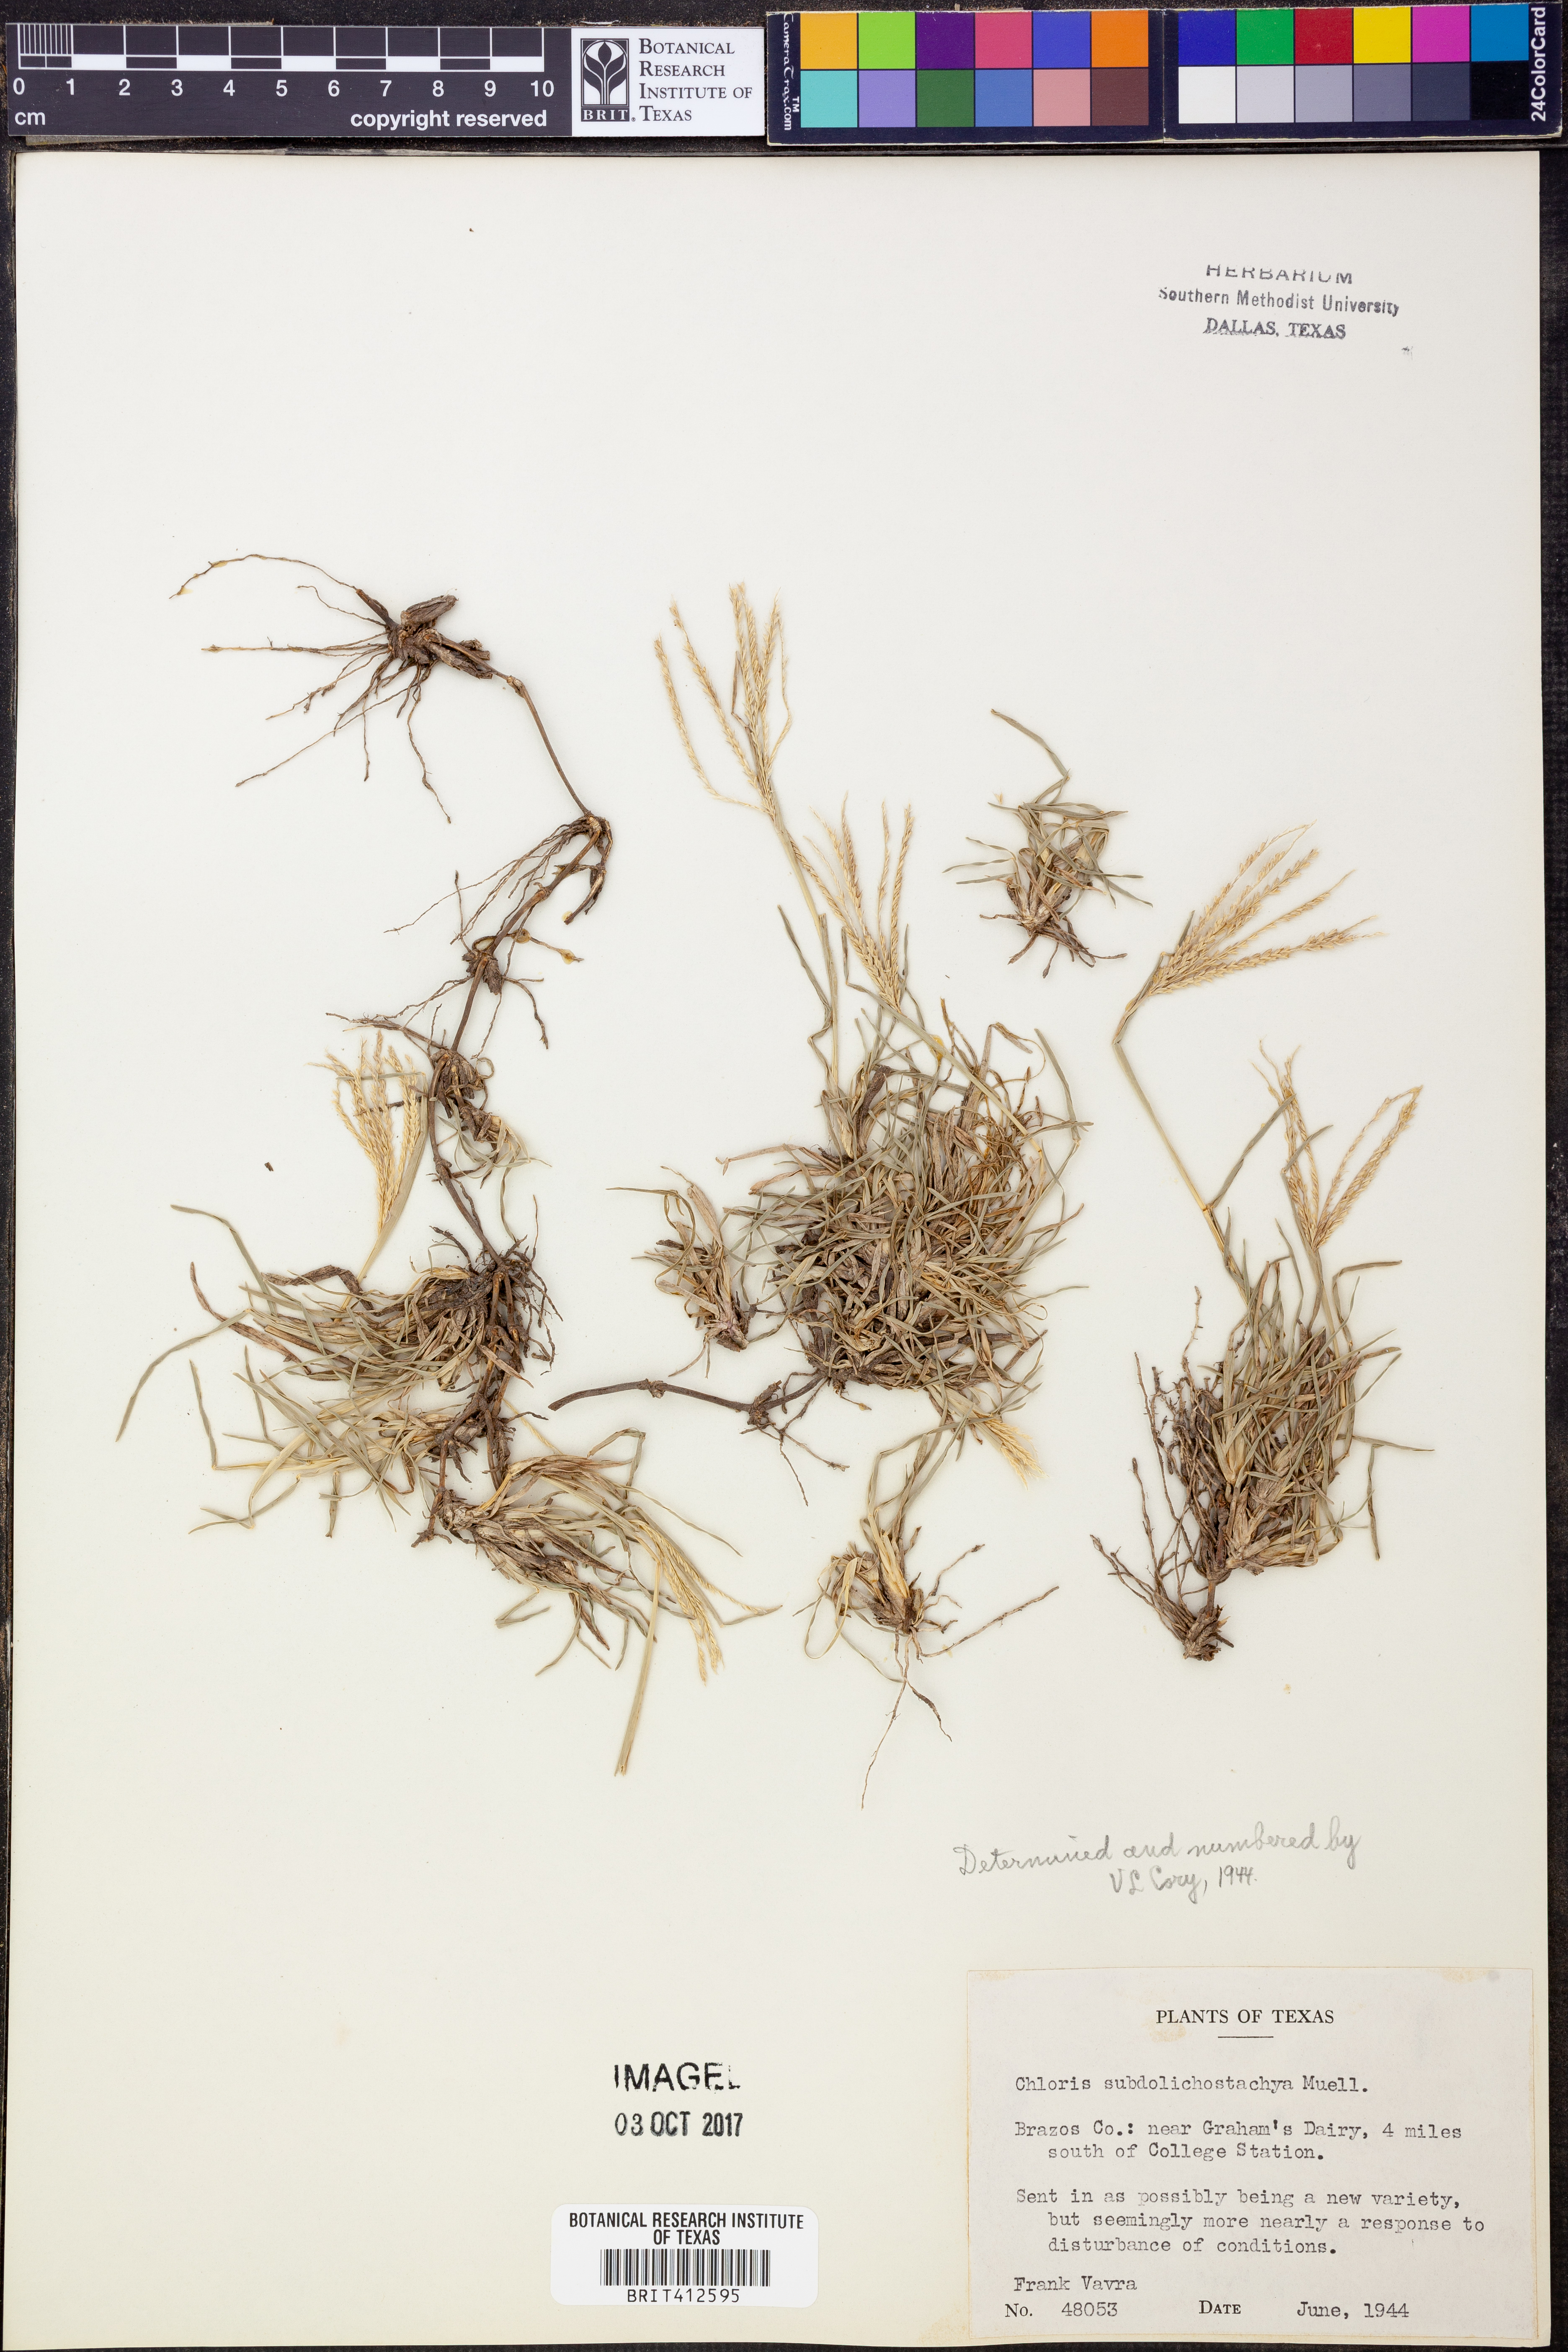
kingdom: Plantae
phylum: Tracheophyta
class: Liliopsida
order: Poales
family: Poaceae
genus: Chloris
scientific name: Chloris subdolichostachya
